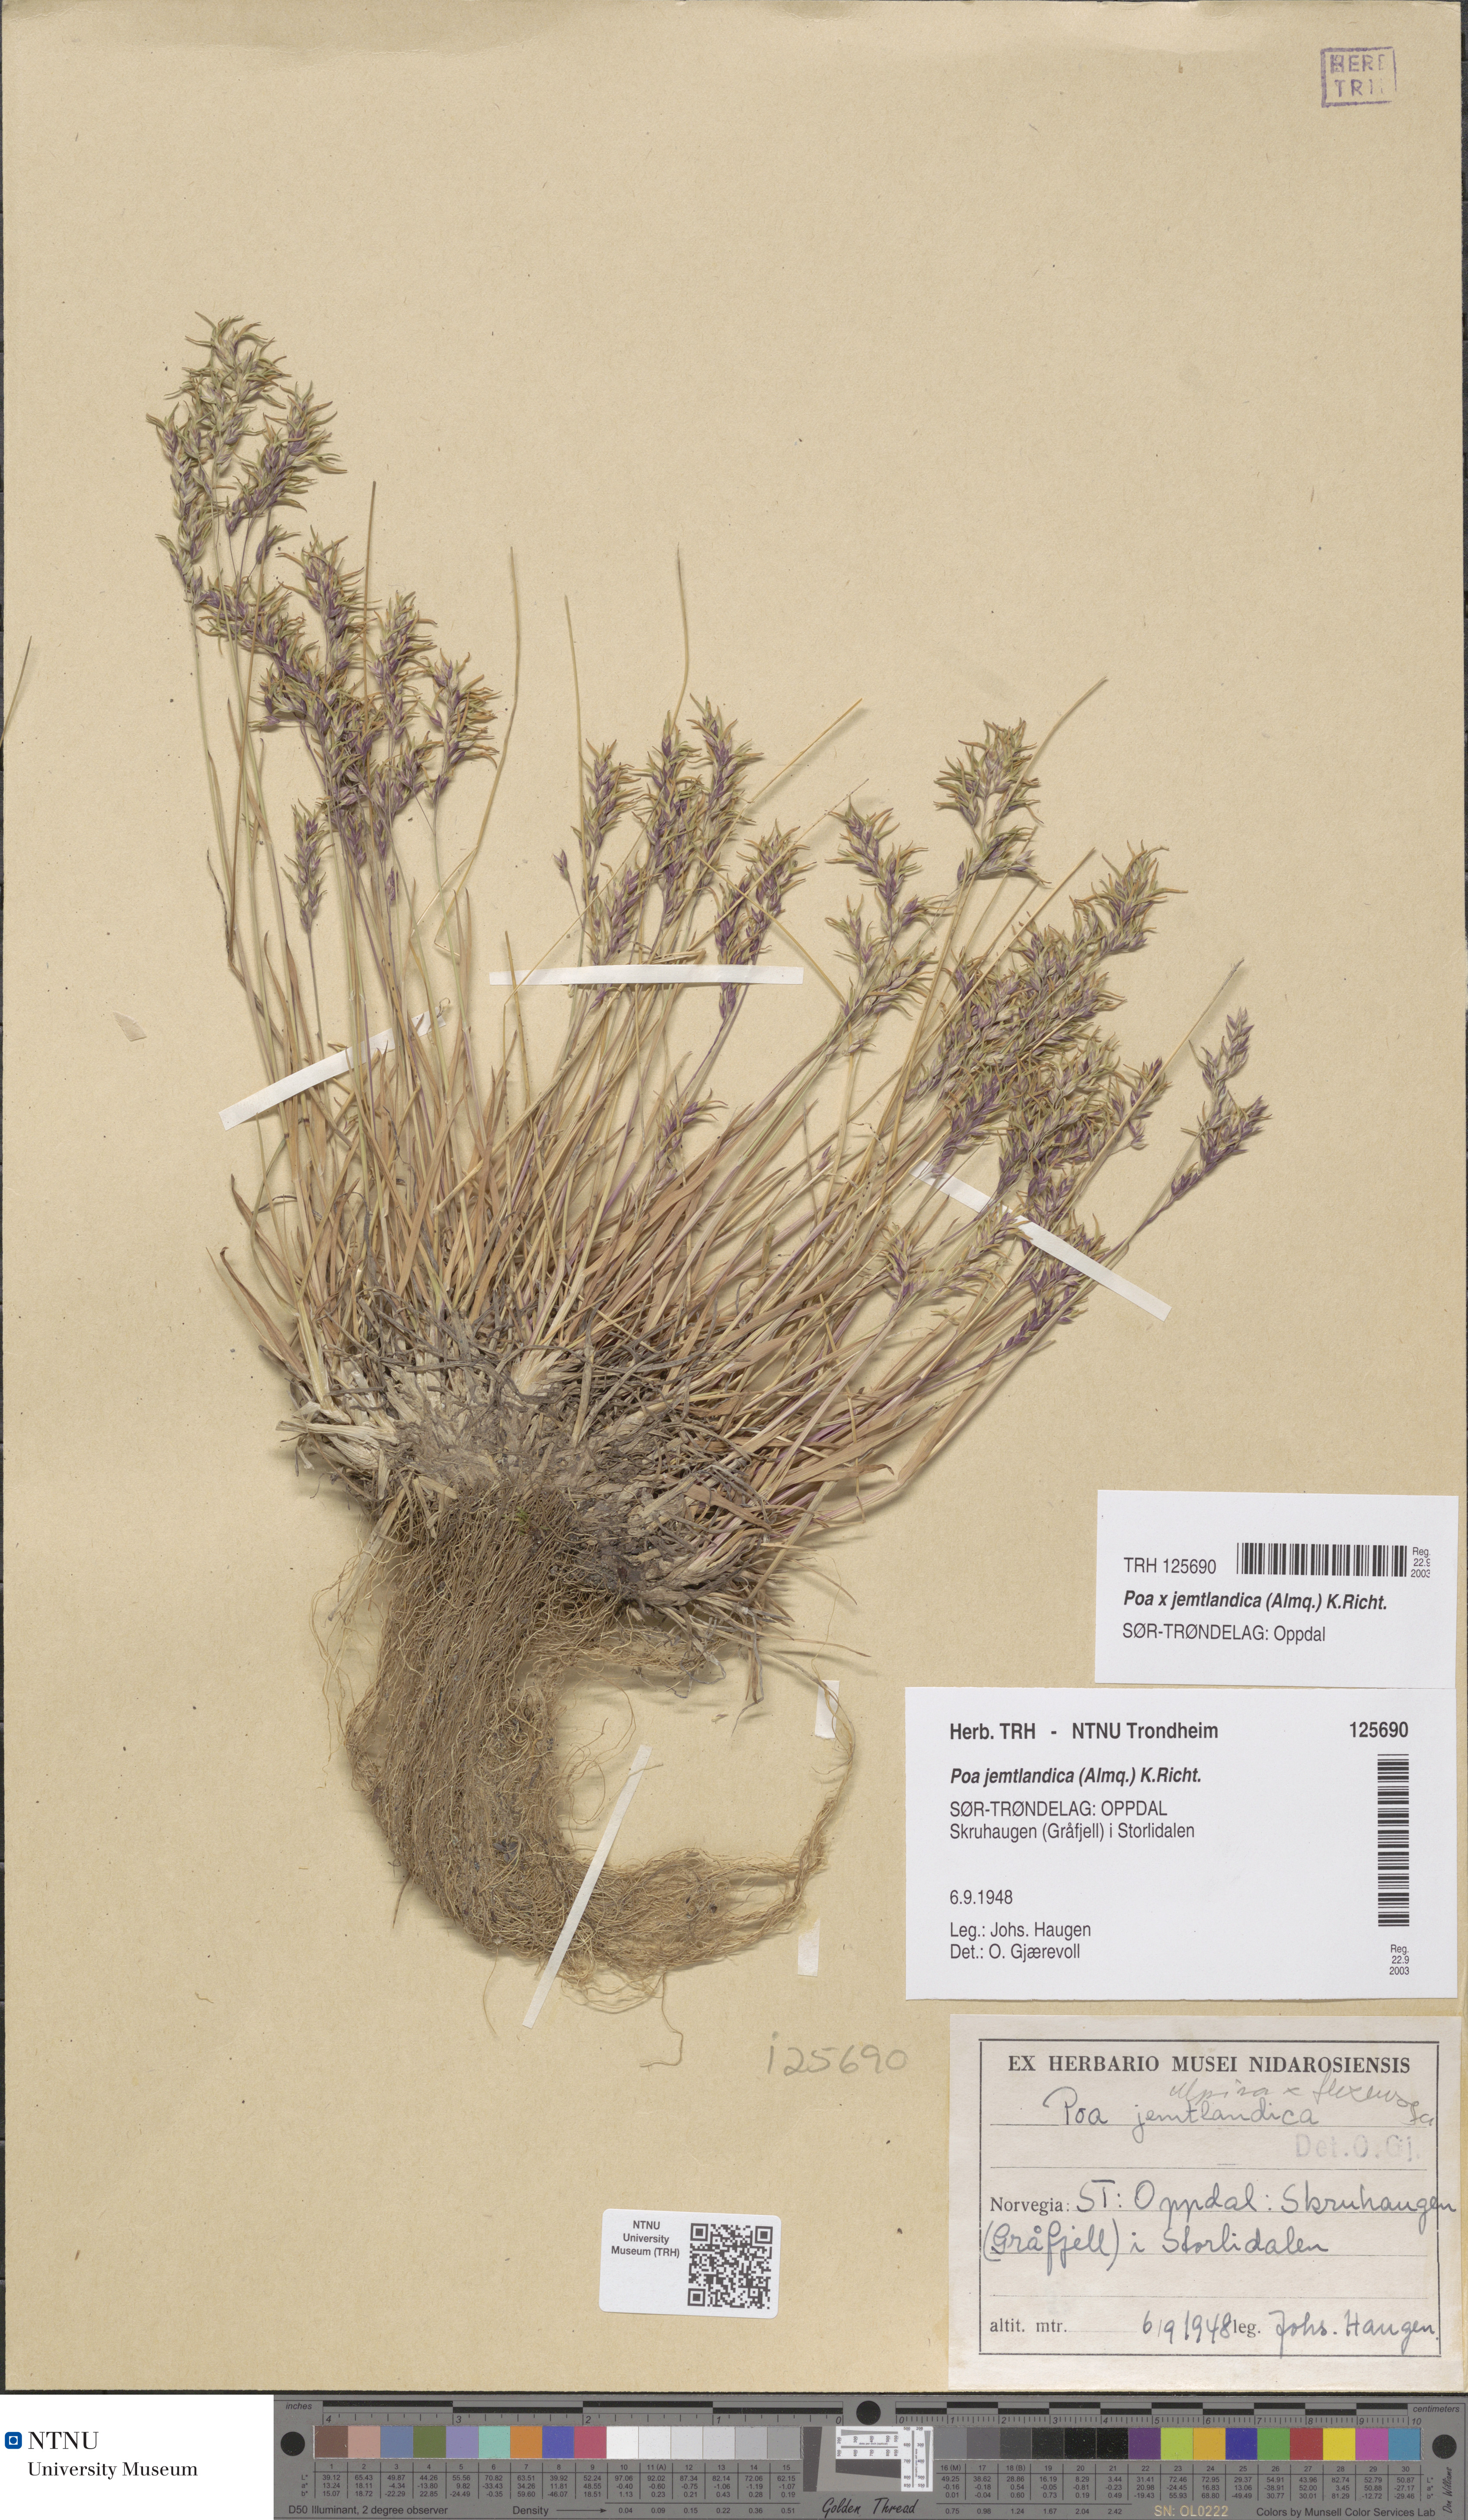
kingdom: Plantae
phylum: Tracheophyta
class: Liliopsida
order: Poales
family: Poaceae
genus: Poa
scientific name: Poa jemtlandica
